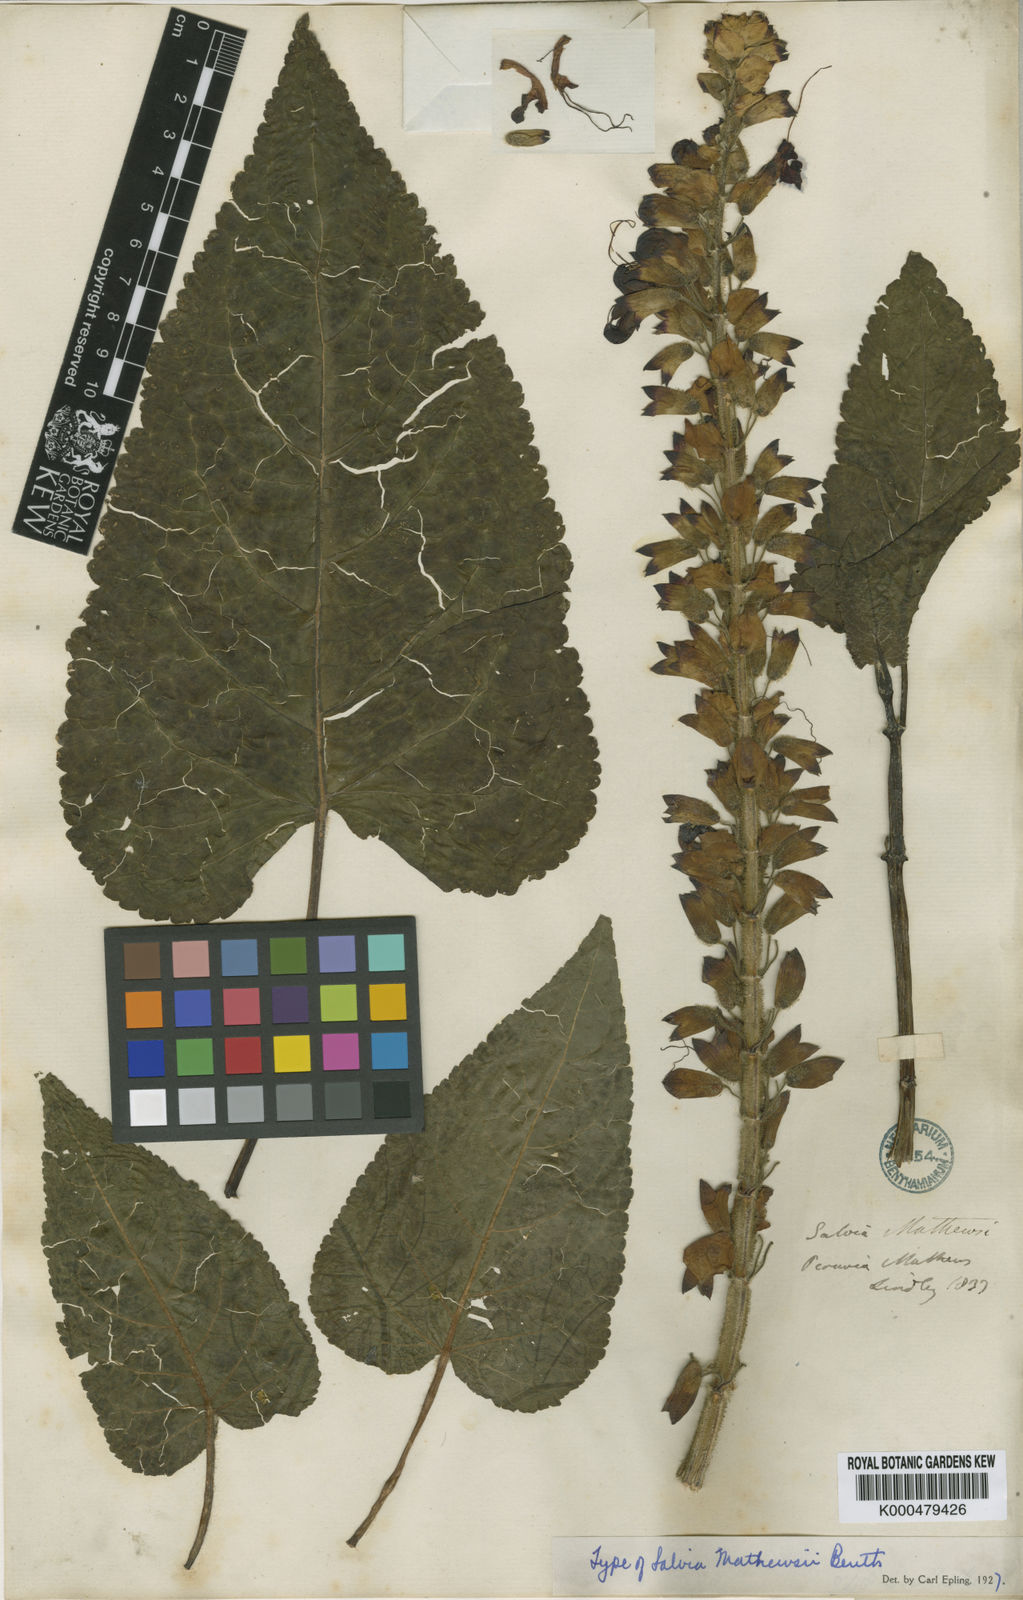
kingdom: Plantae
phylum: Tracheophyta
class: Magnoliopsida
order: Lamiales
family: Lamiaceae
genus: Salvia
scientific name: Salvia speciosa
